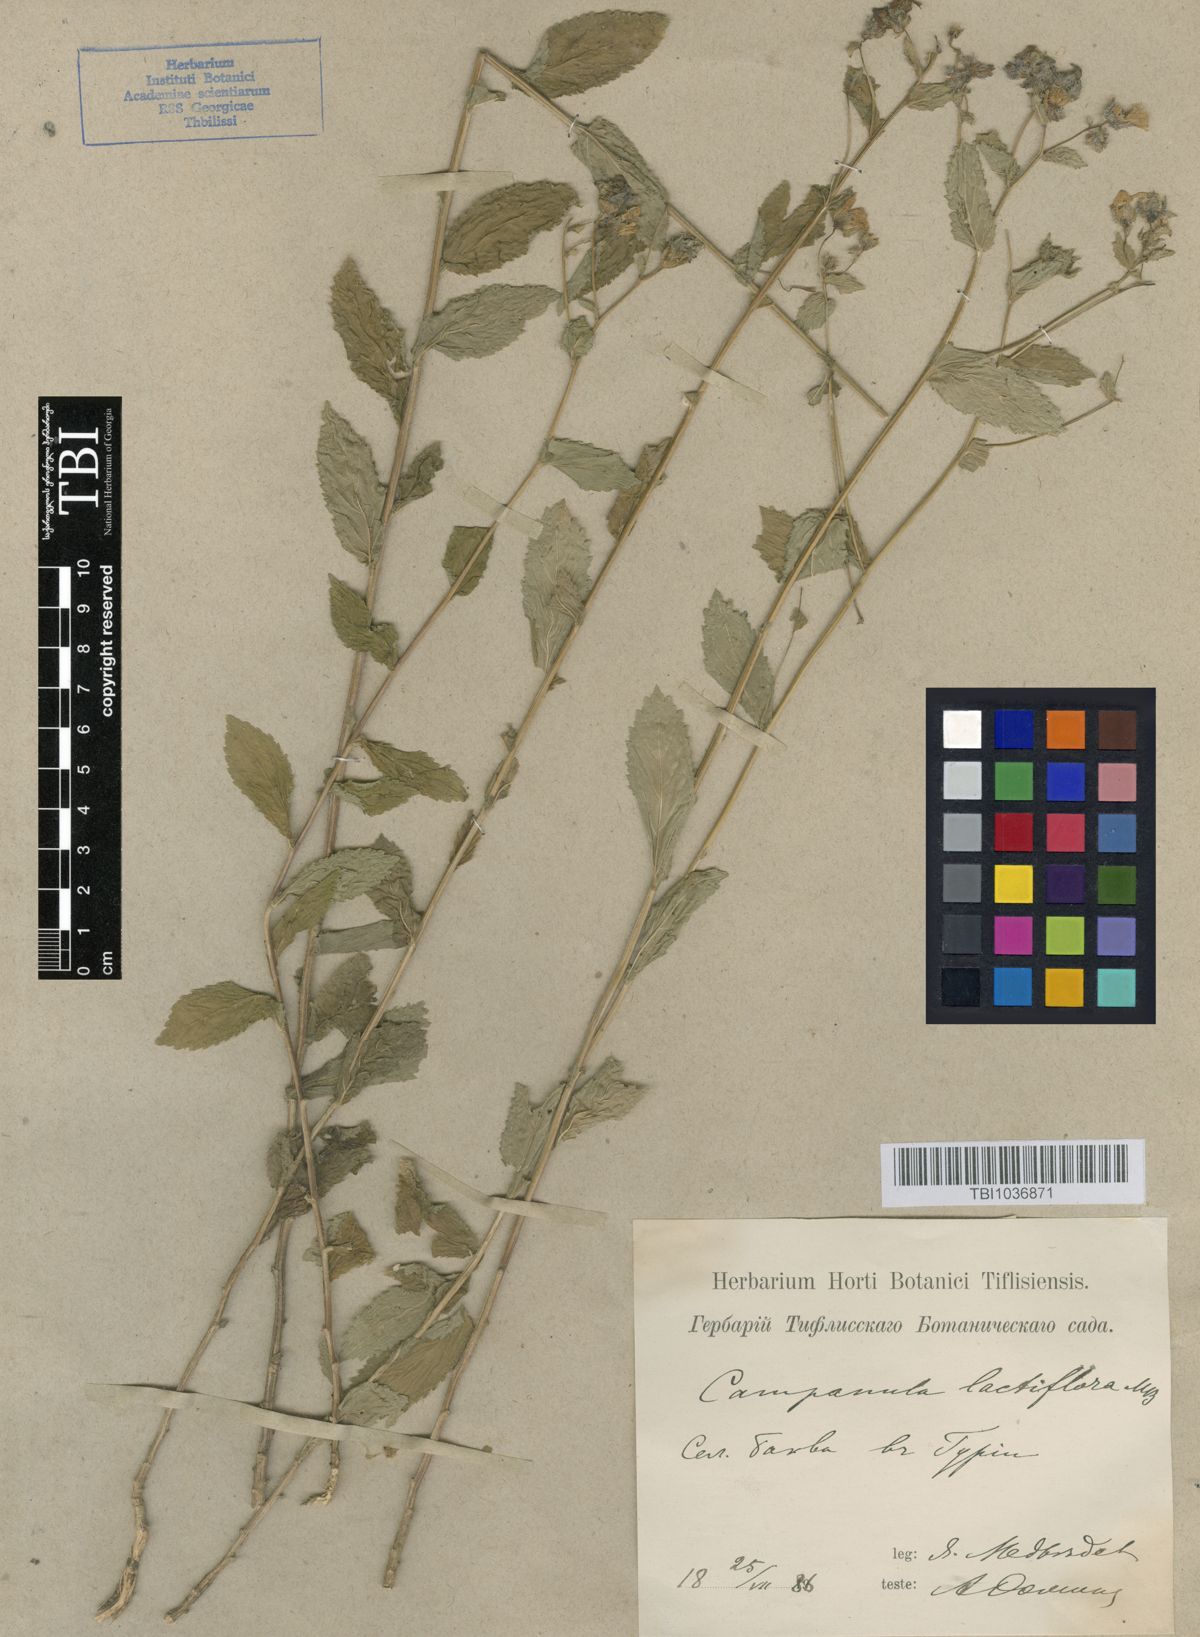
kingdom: Plantae
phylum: Tracheophyta
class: Magnoliopsida
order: Asterales
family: Campanulaceae
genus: Campanula
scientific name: Campanula lactiflora
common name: Milky bellflower
